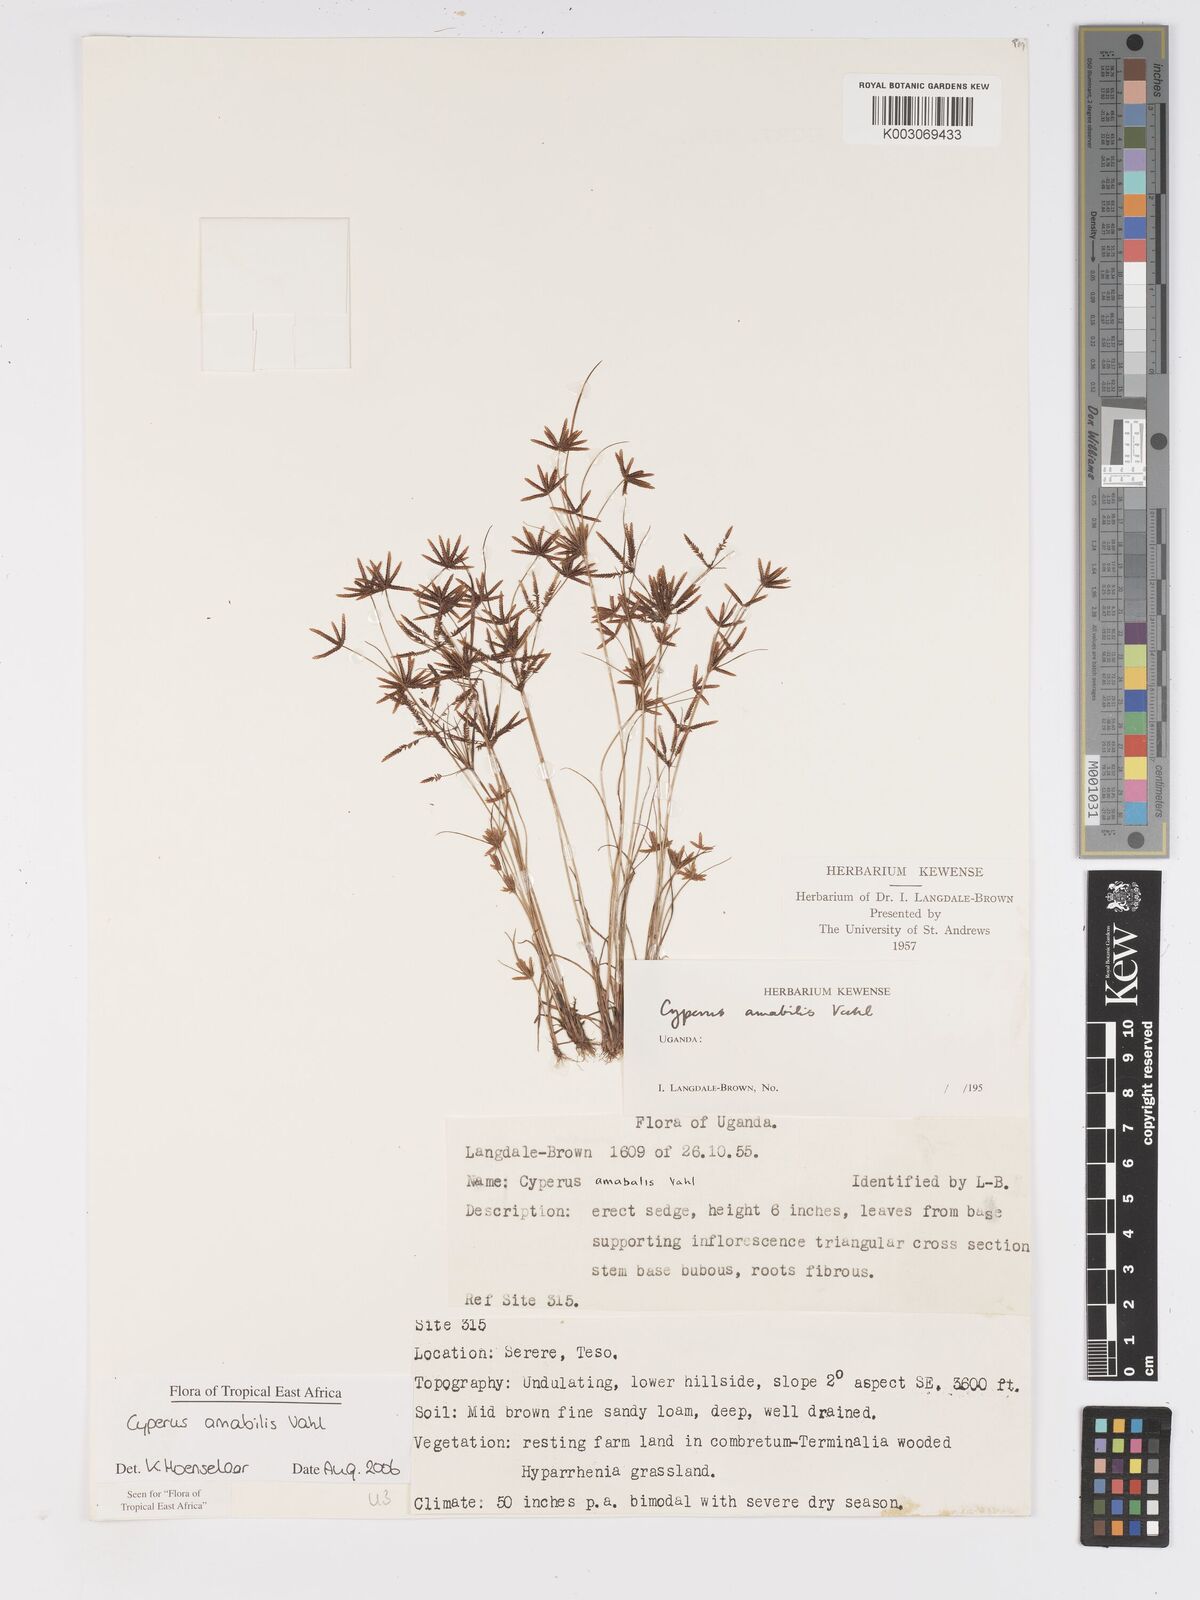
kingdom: Plantae
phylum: Tracheophyta
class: Liliopsida
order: Poales
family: Cyperaceae
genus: Cyperus
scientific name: Cyperus amabilis
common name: Foothill flat sedge
